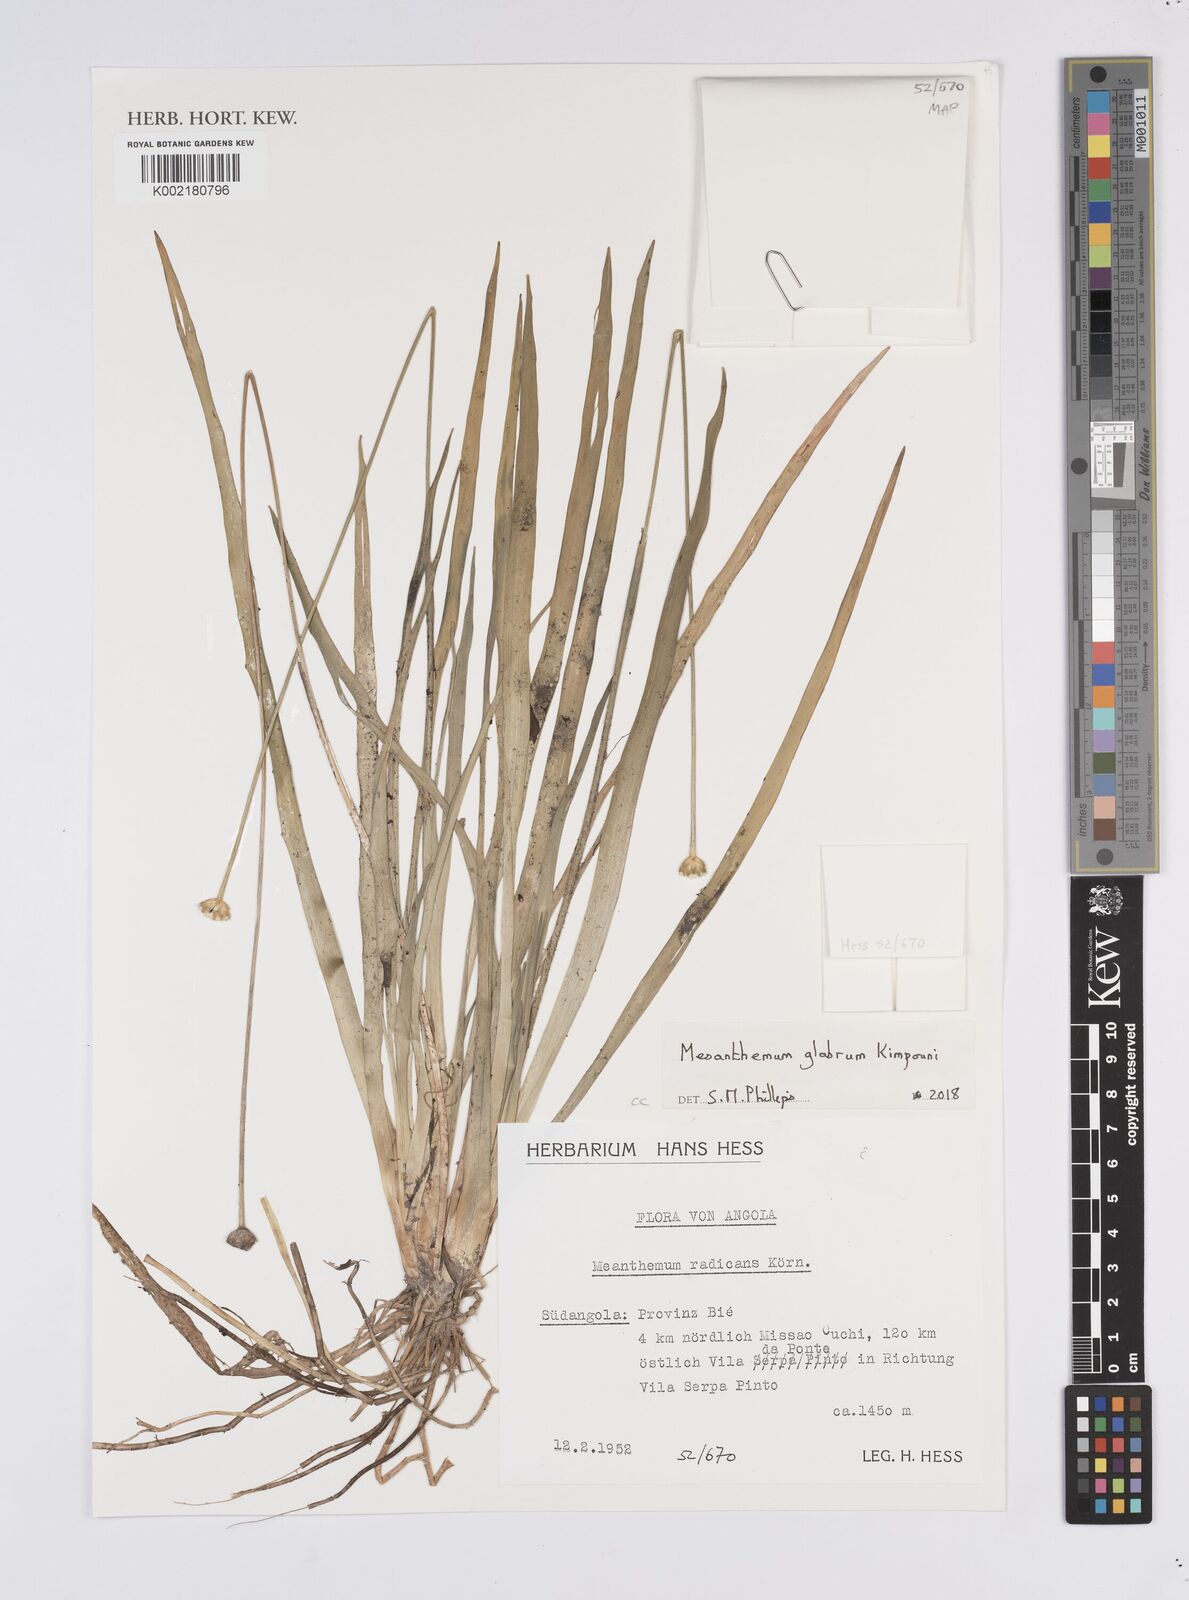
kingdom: Plantae
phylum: Tracheophyta
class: Liliopsida
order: Poales
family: Eriocaulaceae
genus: Mesanthemum
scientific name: Mesanthemum glabrum
